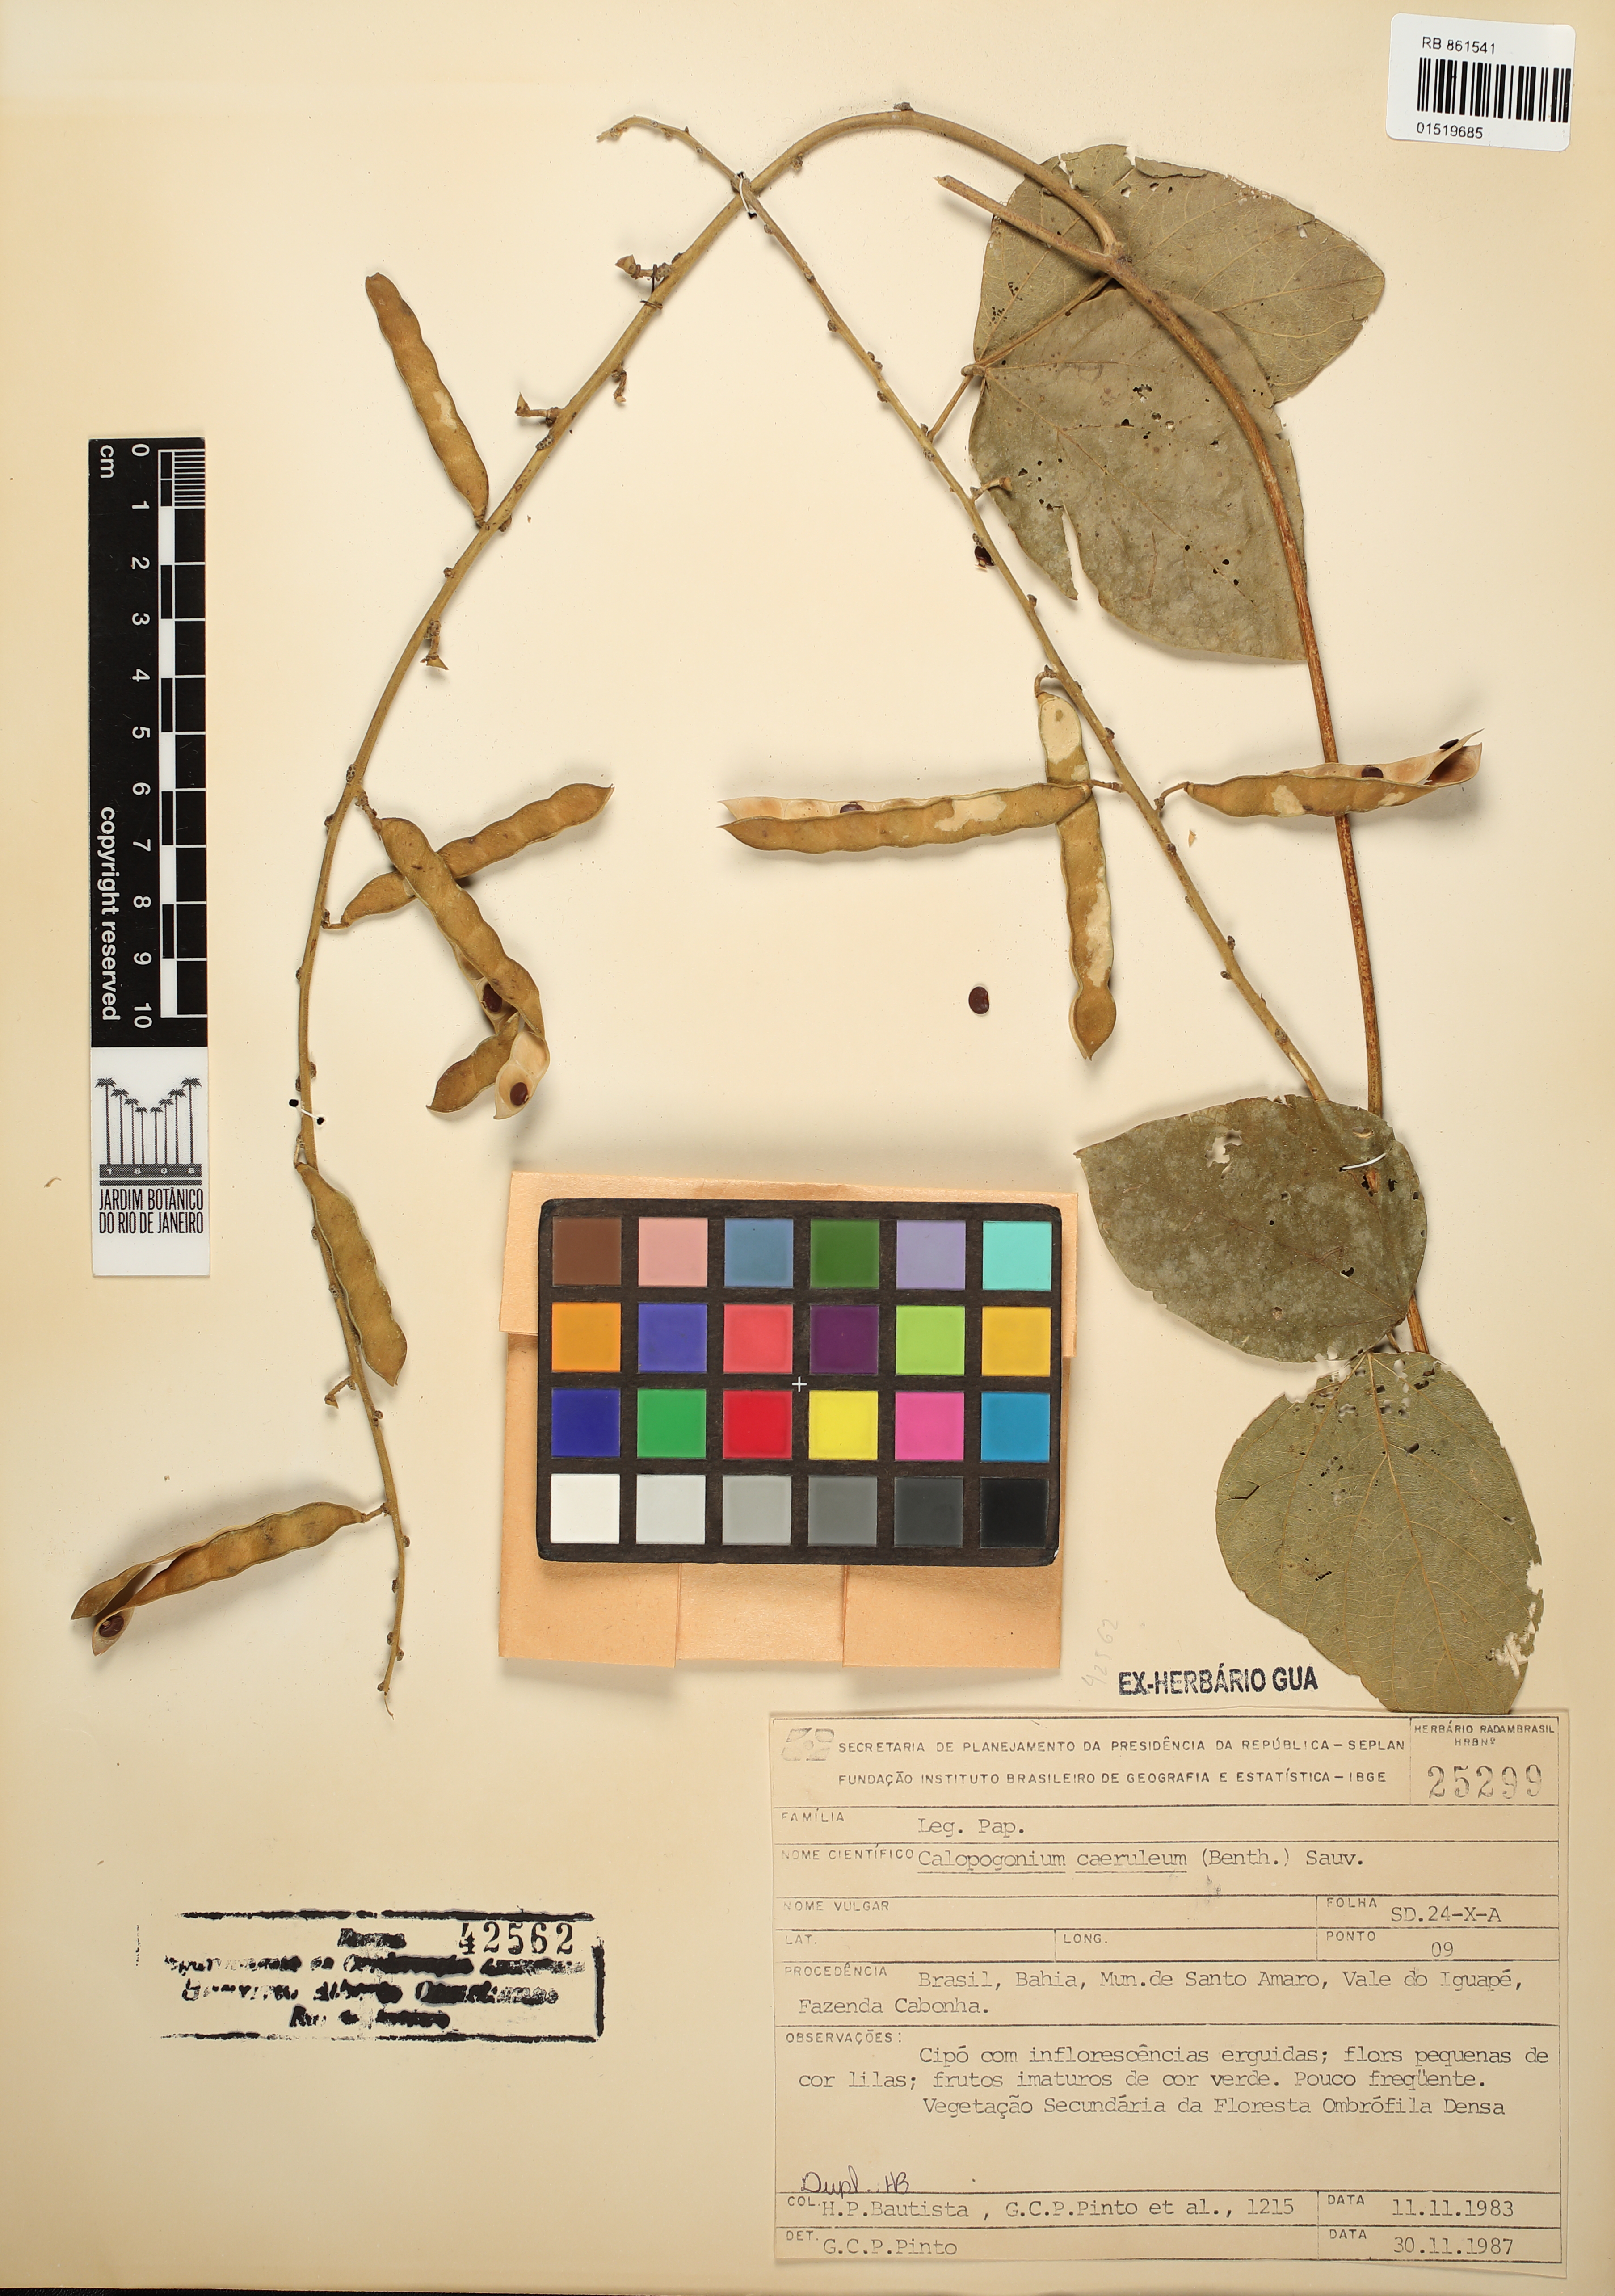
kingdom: Plantae
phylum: Tracheophyta
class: Magnoliopsida
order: Fabales
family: Fabaceae
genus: Calopogonium
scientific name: Calopogonium caeruleum
